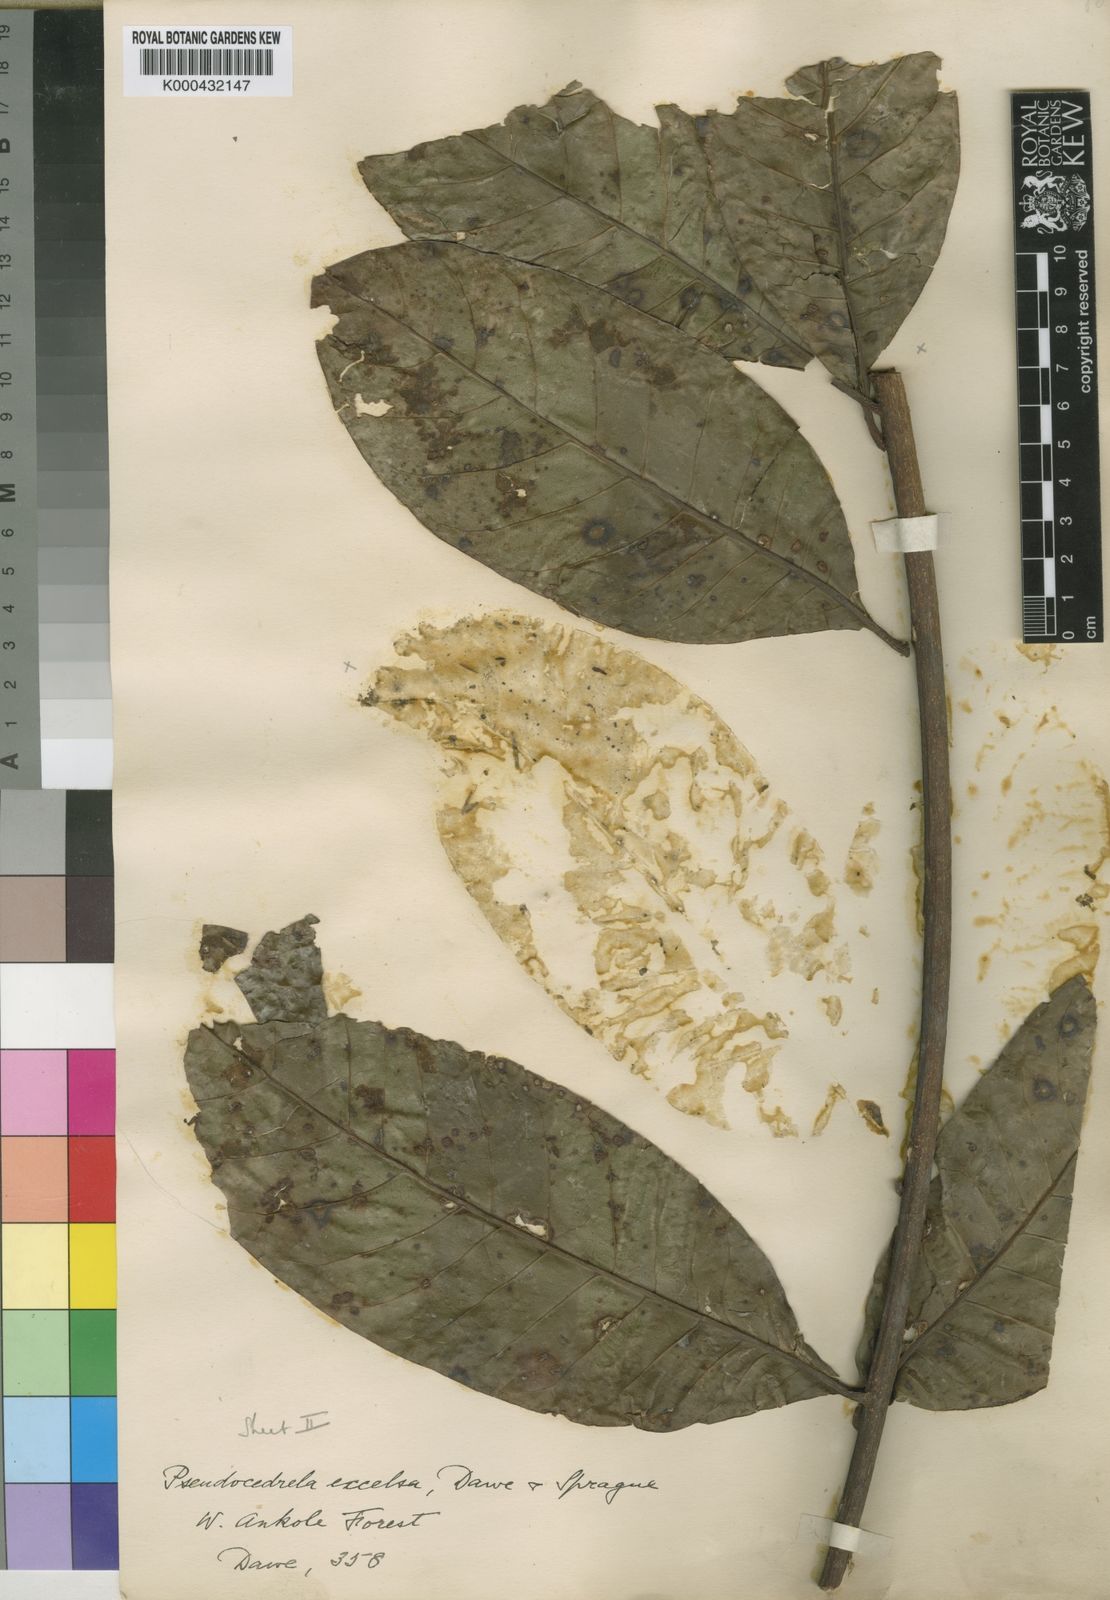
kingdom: Plantae
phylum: Tracheophyta
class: Magnoliopsida
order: Sapindales
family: Meliaceae
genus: Entandrophragma
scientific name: Entandrophragma excelsum
